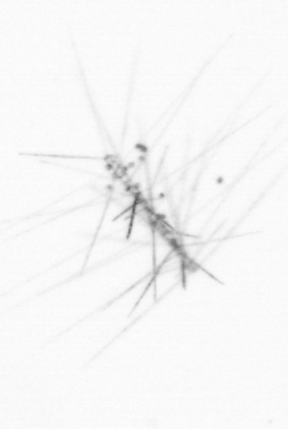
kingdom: Chromista
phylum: Ochrophyta
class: Bacillariophyceae
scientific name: Bacillariophyceae
